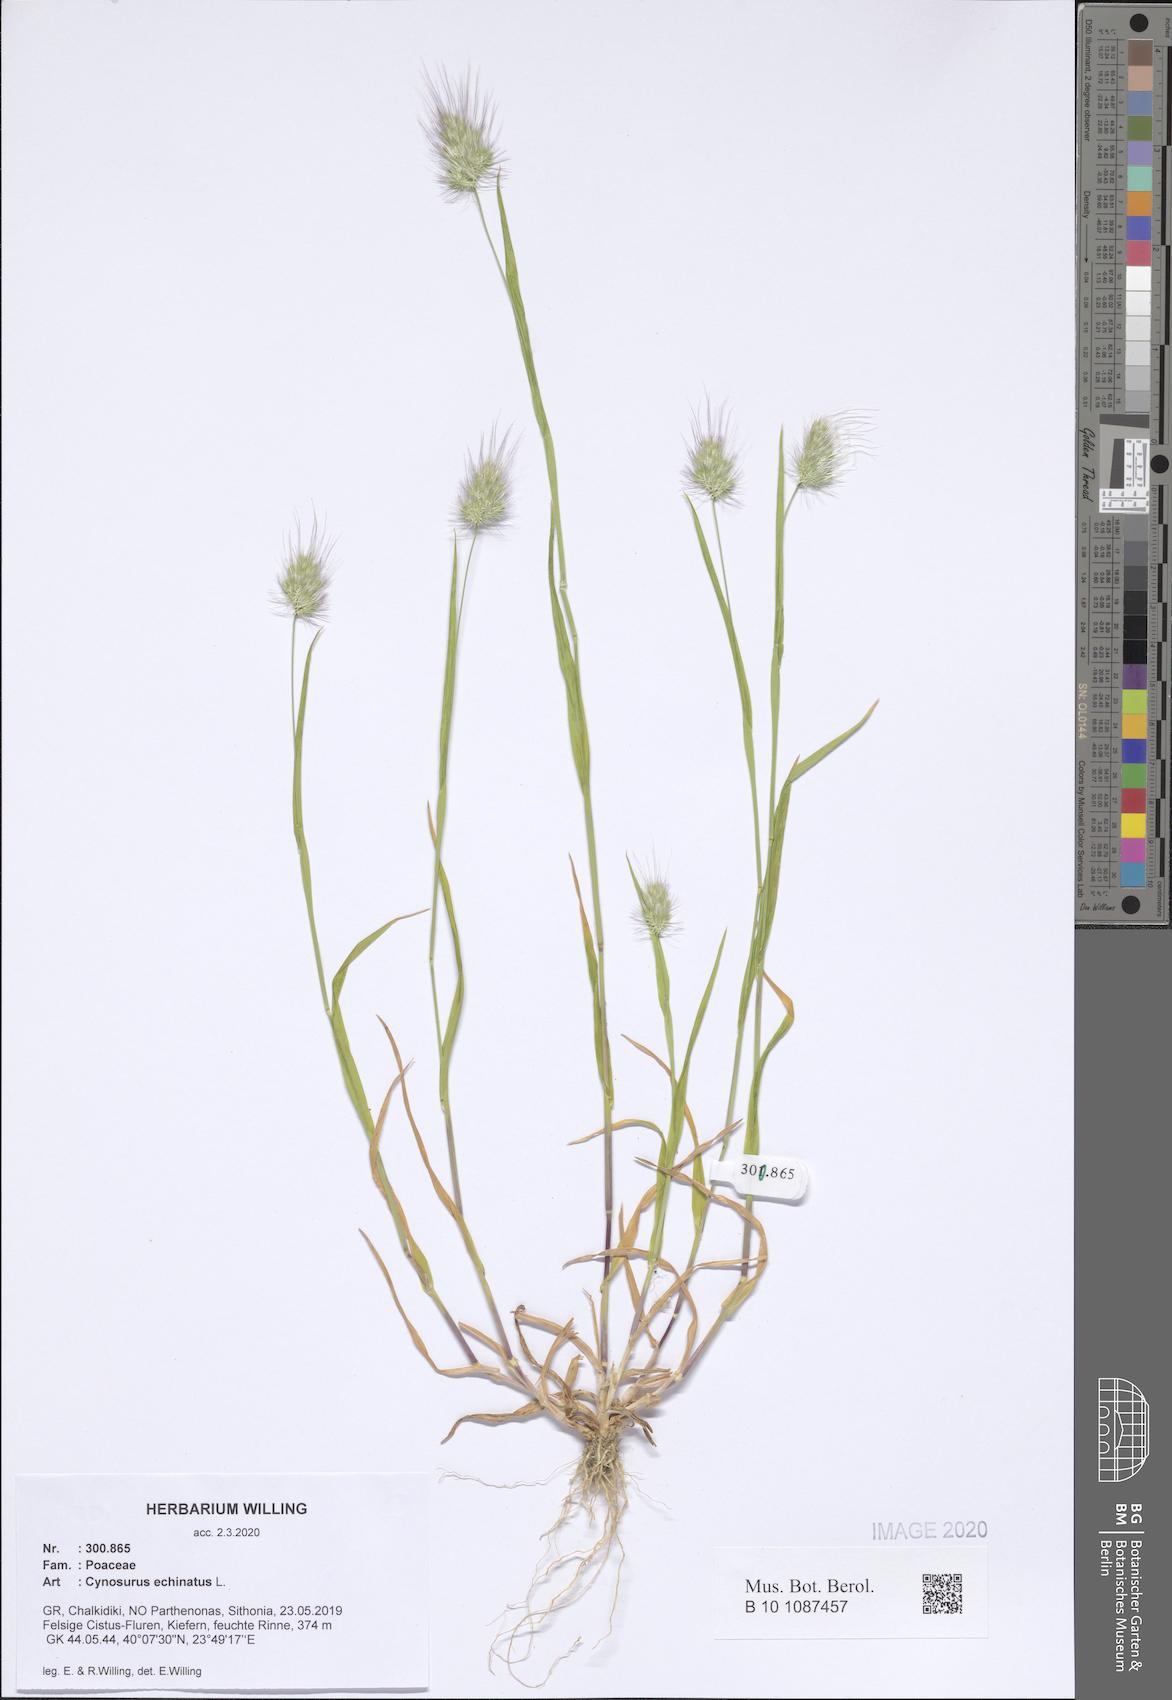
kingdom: Plantae
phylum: Tracheophyta
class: Liliopsida
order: Poales
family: Poaceae
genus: Cynosurus
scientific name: Cynosurus echinatus
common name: Rough dog's-tail
